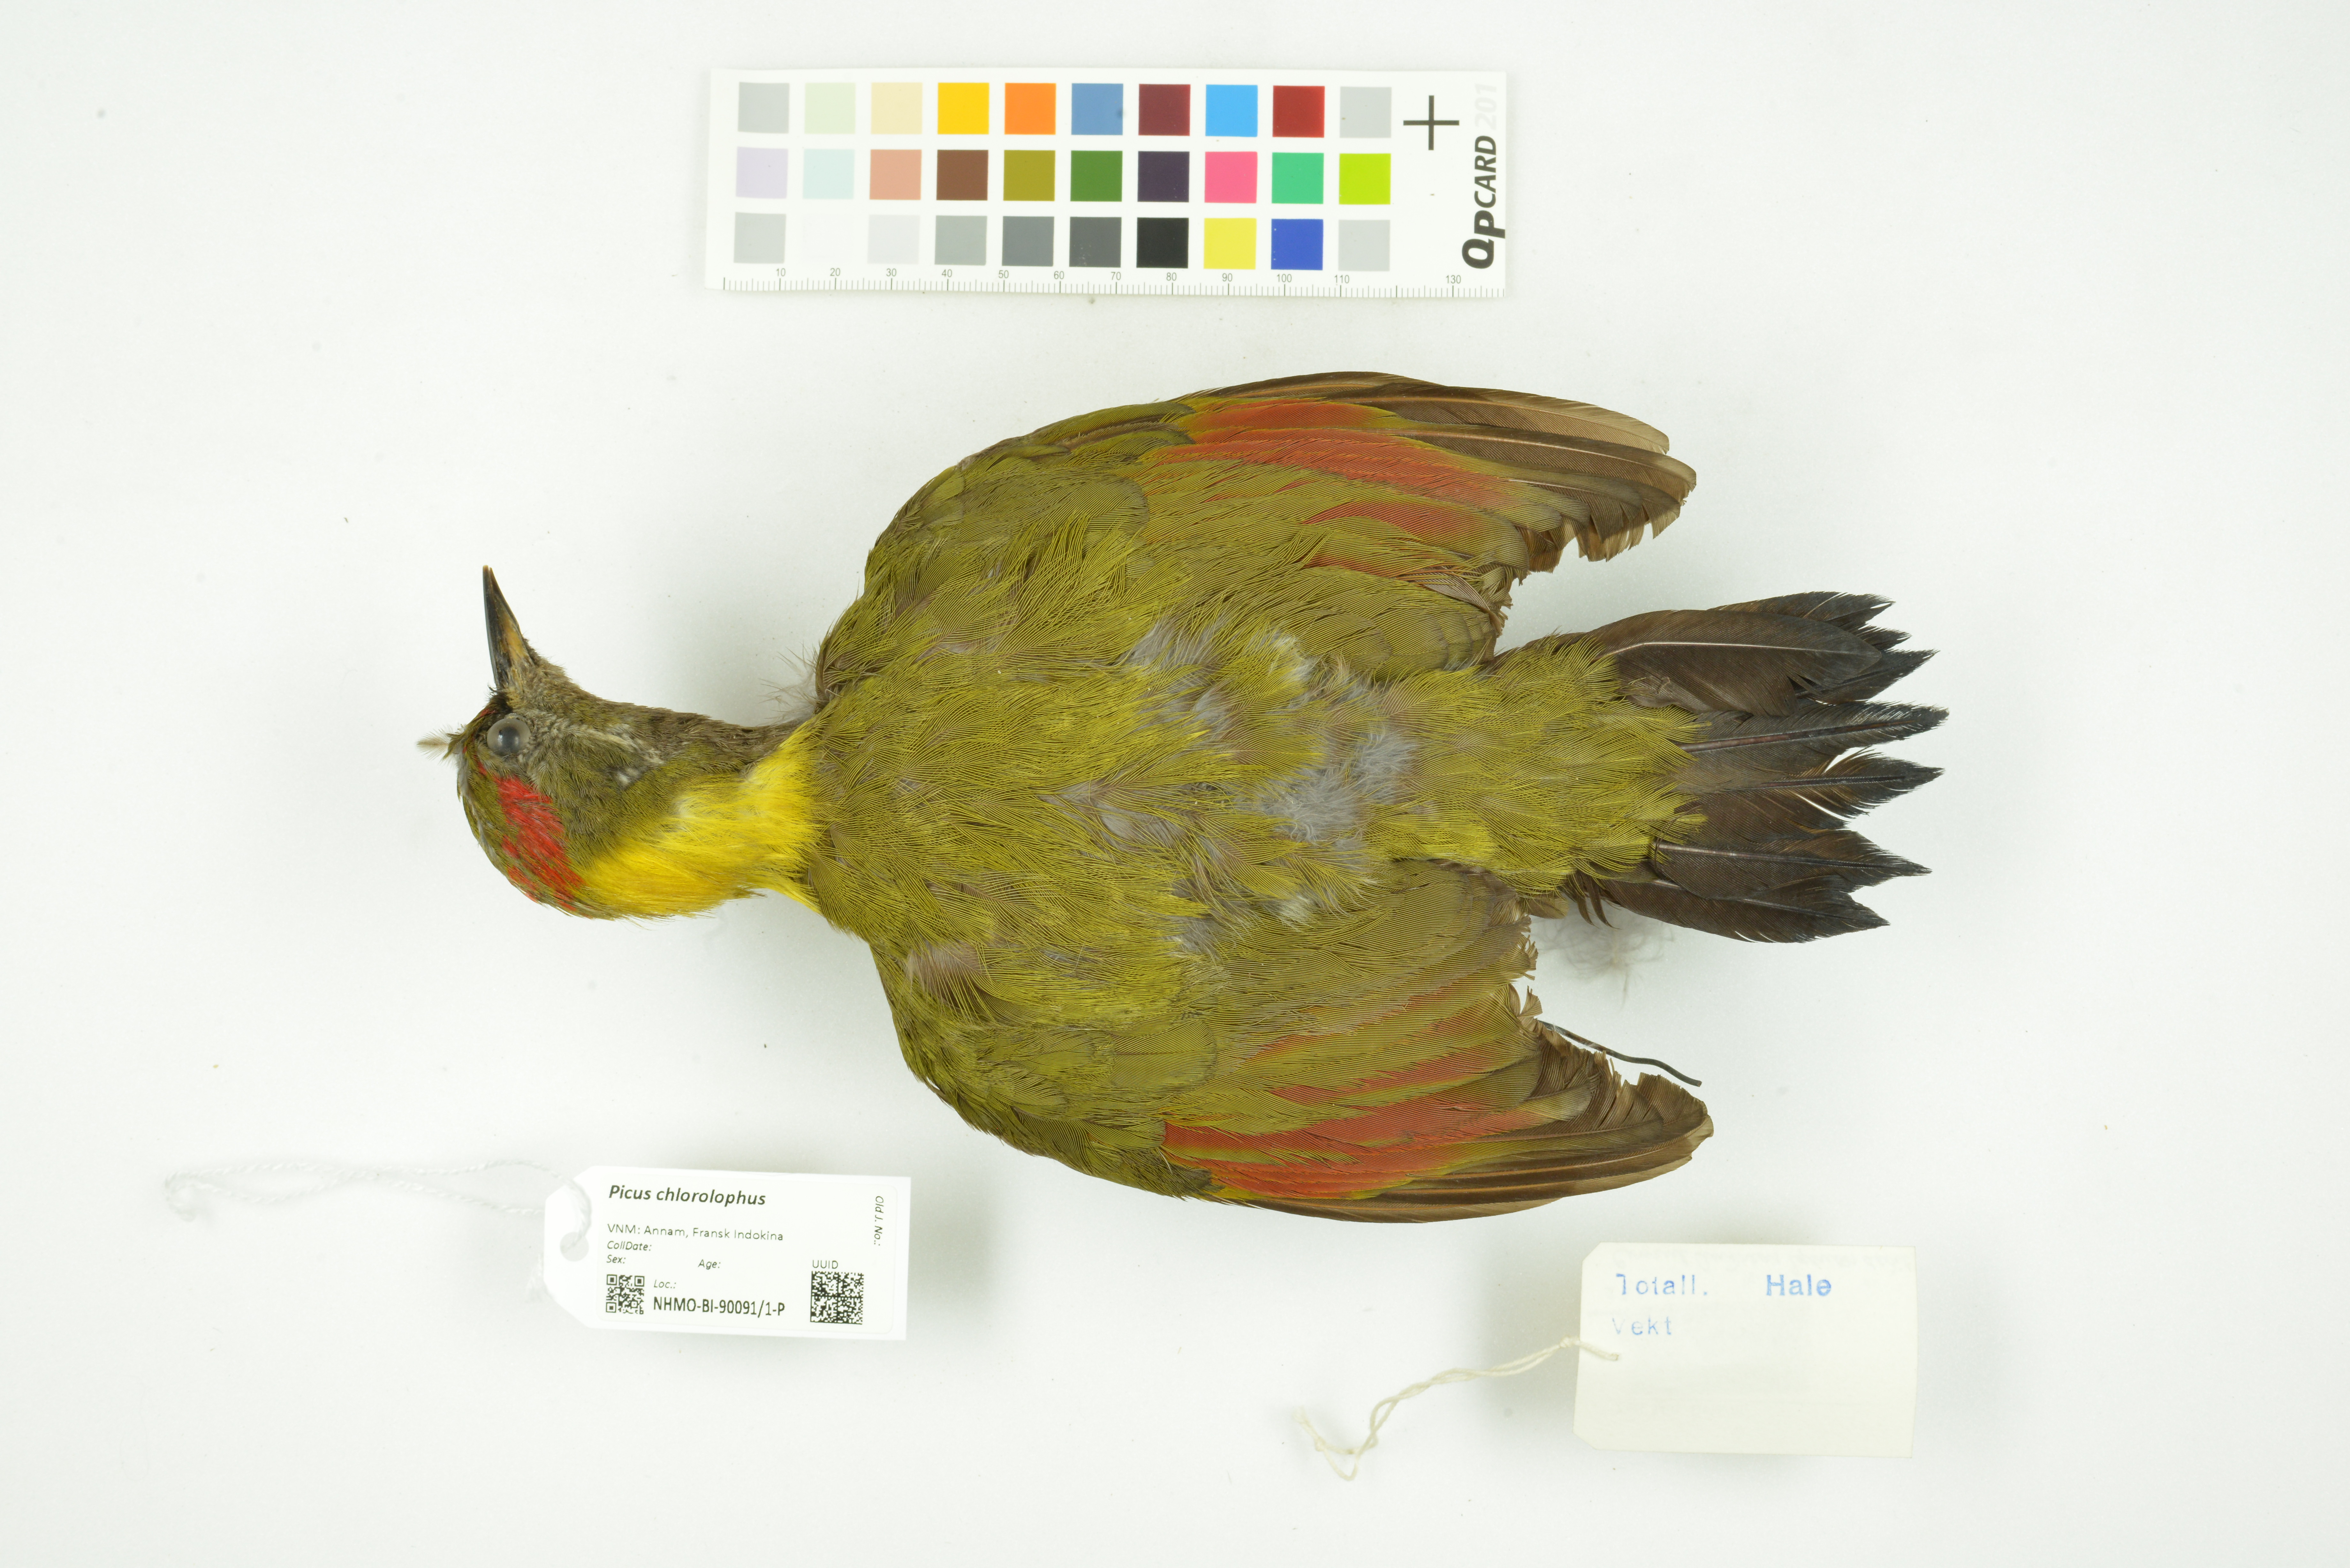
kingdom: Animalia
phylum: Chordata
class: Aves
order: Piciformes
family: Picidae
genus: Picus
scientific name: Picus chlorolophus
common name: Lesser yellownape
